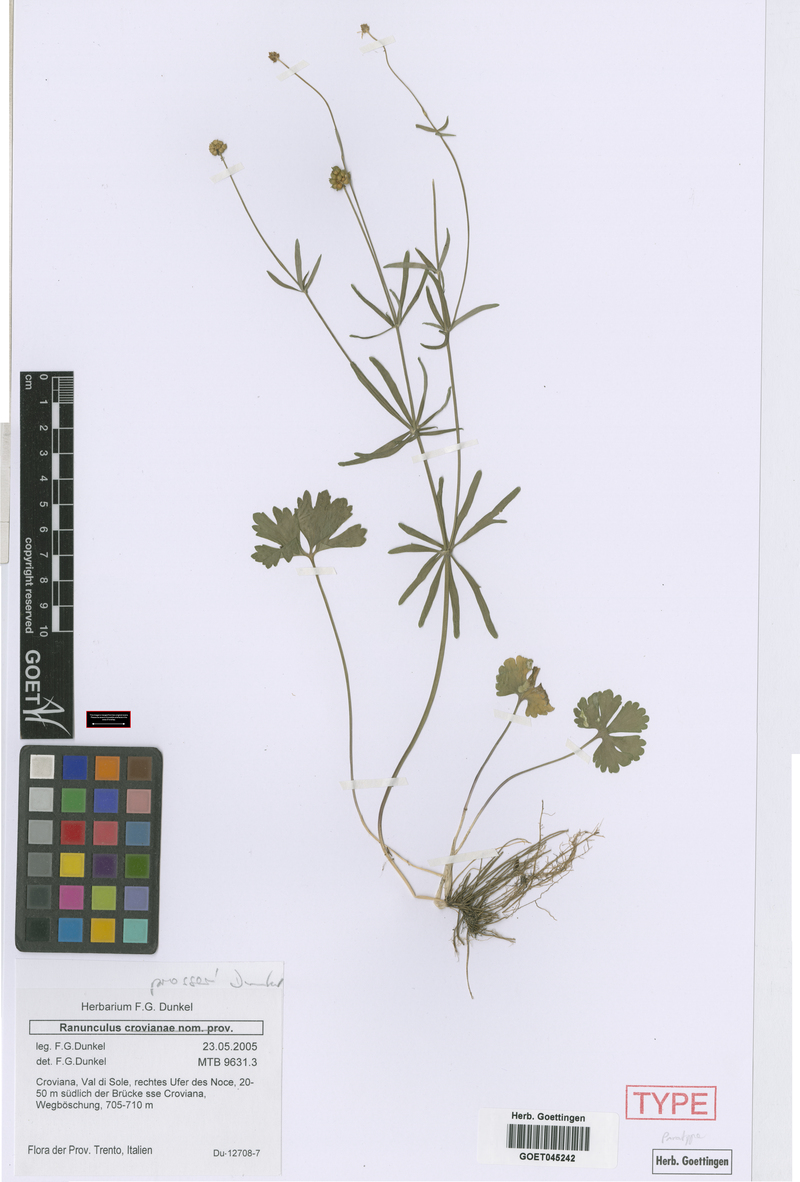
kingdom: Plantae
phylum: Tracheophyta
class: Magnoliopsida
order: Ranunculales
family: Ranunculaceae
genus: Ranunculus
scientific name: Ranunculus prosseri
